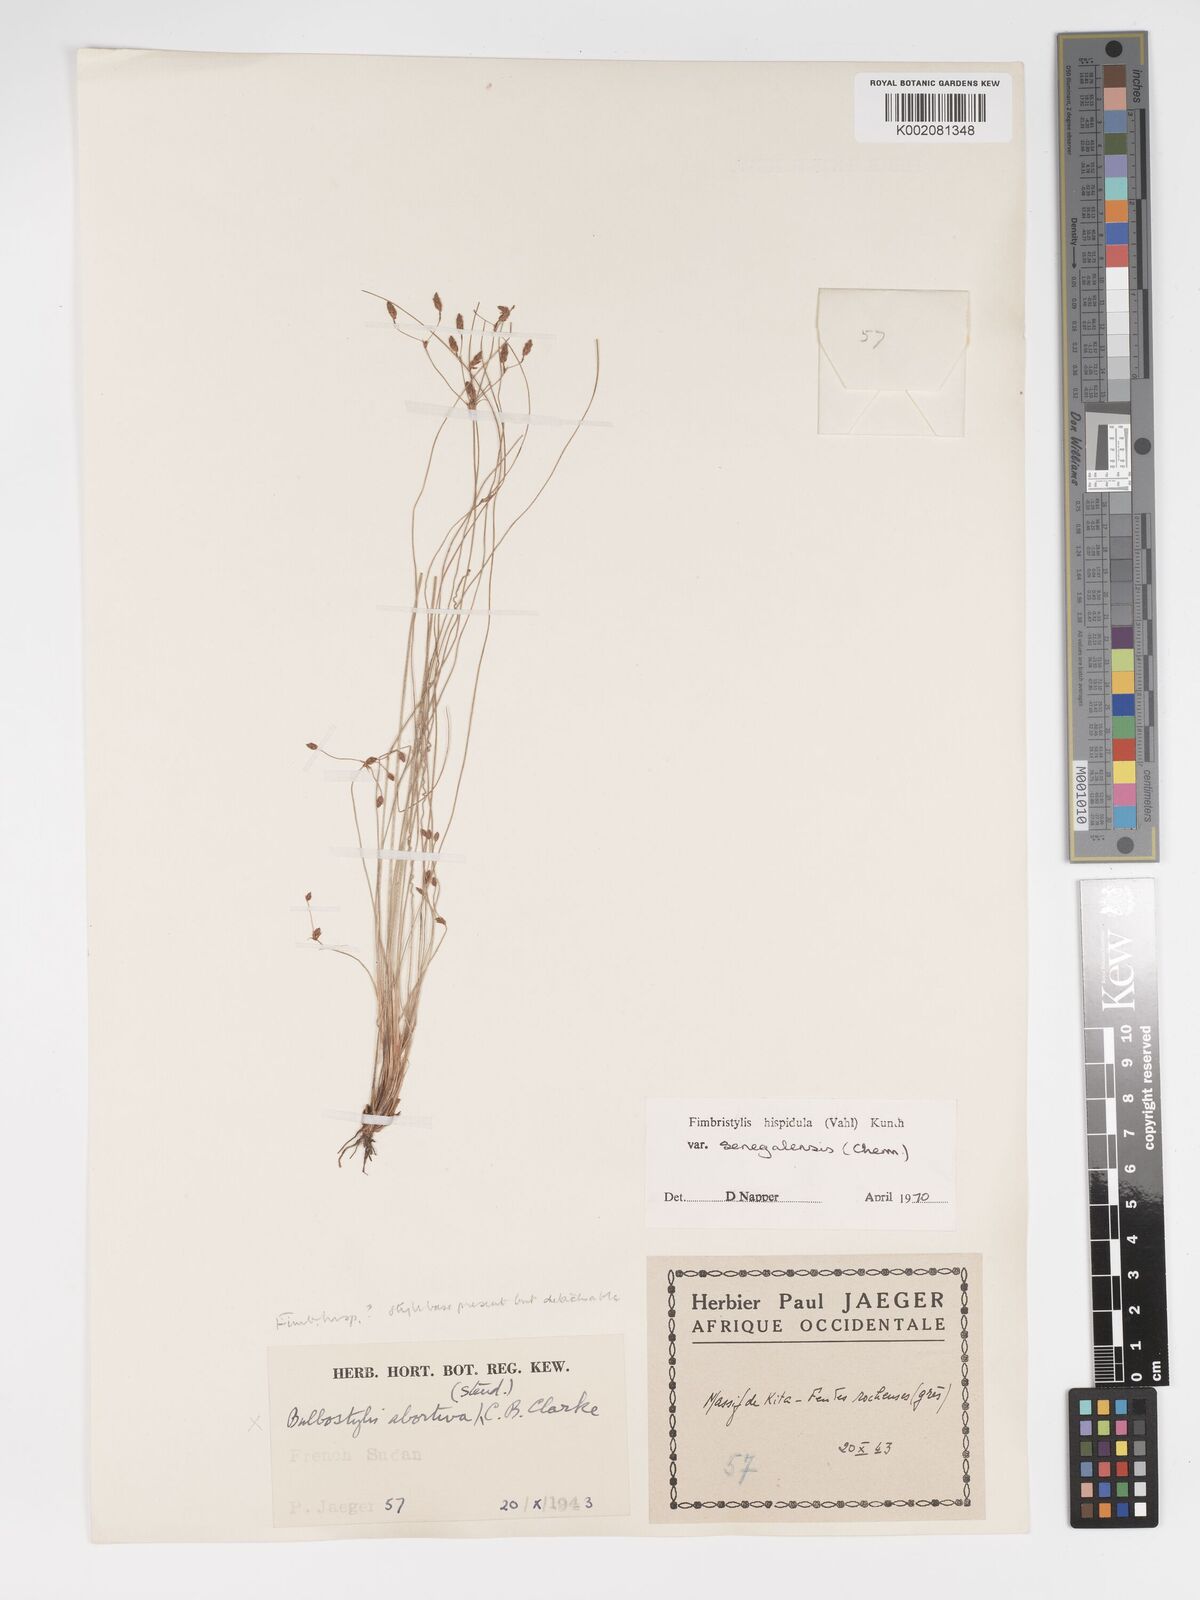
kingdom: Plantae
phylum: Tracheophyta
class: Liliopsida
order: Poales
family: Cyperaceae
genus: Bulbostylis
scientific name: Bulbostylis hispidula
